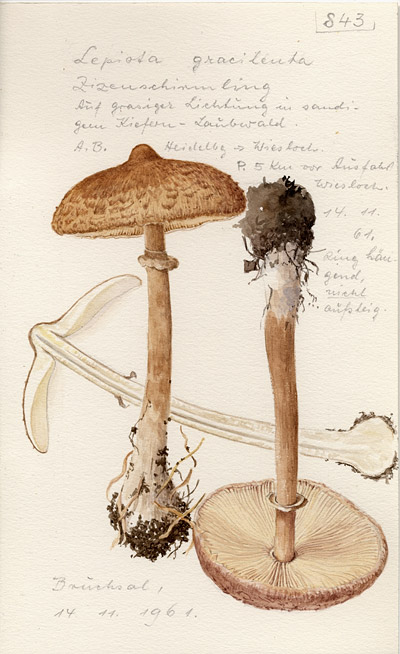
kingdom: Fungi
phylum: Basidiomycota
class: Agaricomycetes
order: Agaricales
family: Agaricaceae
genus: Macrolepiota
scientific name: Macrolepiota mastoidea
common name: Slender parasol
